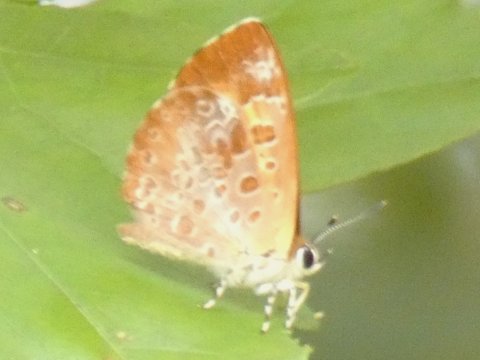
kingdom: Animalia
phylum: Arthropoda
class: Insecta
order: Lepidoptera
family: Lycaenidae
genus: Feniseca
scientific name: Feniseca tarquinius
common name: Harvester
